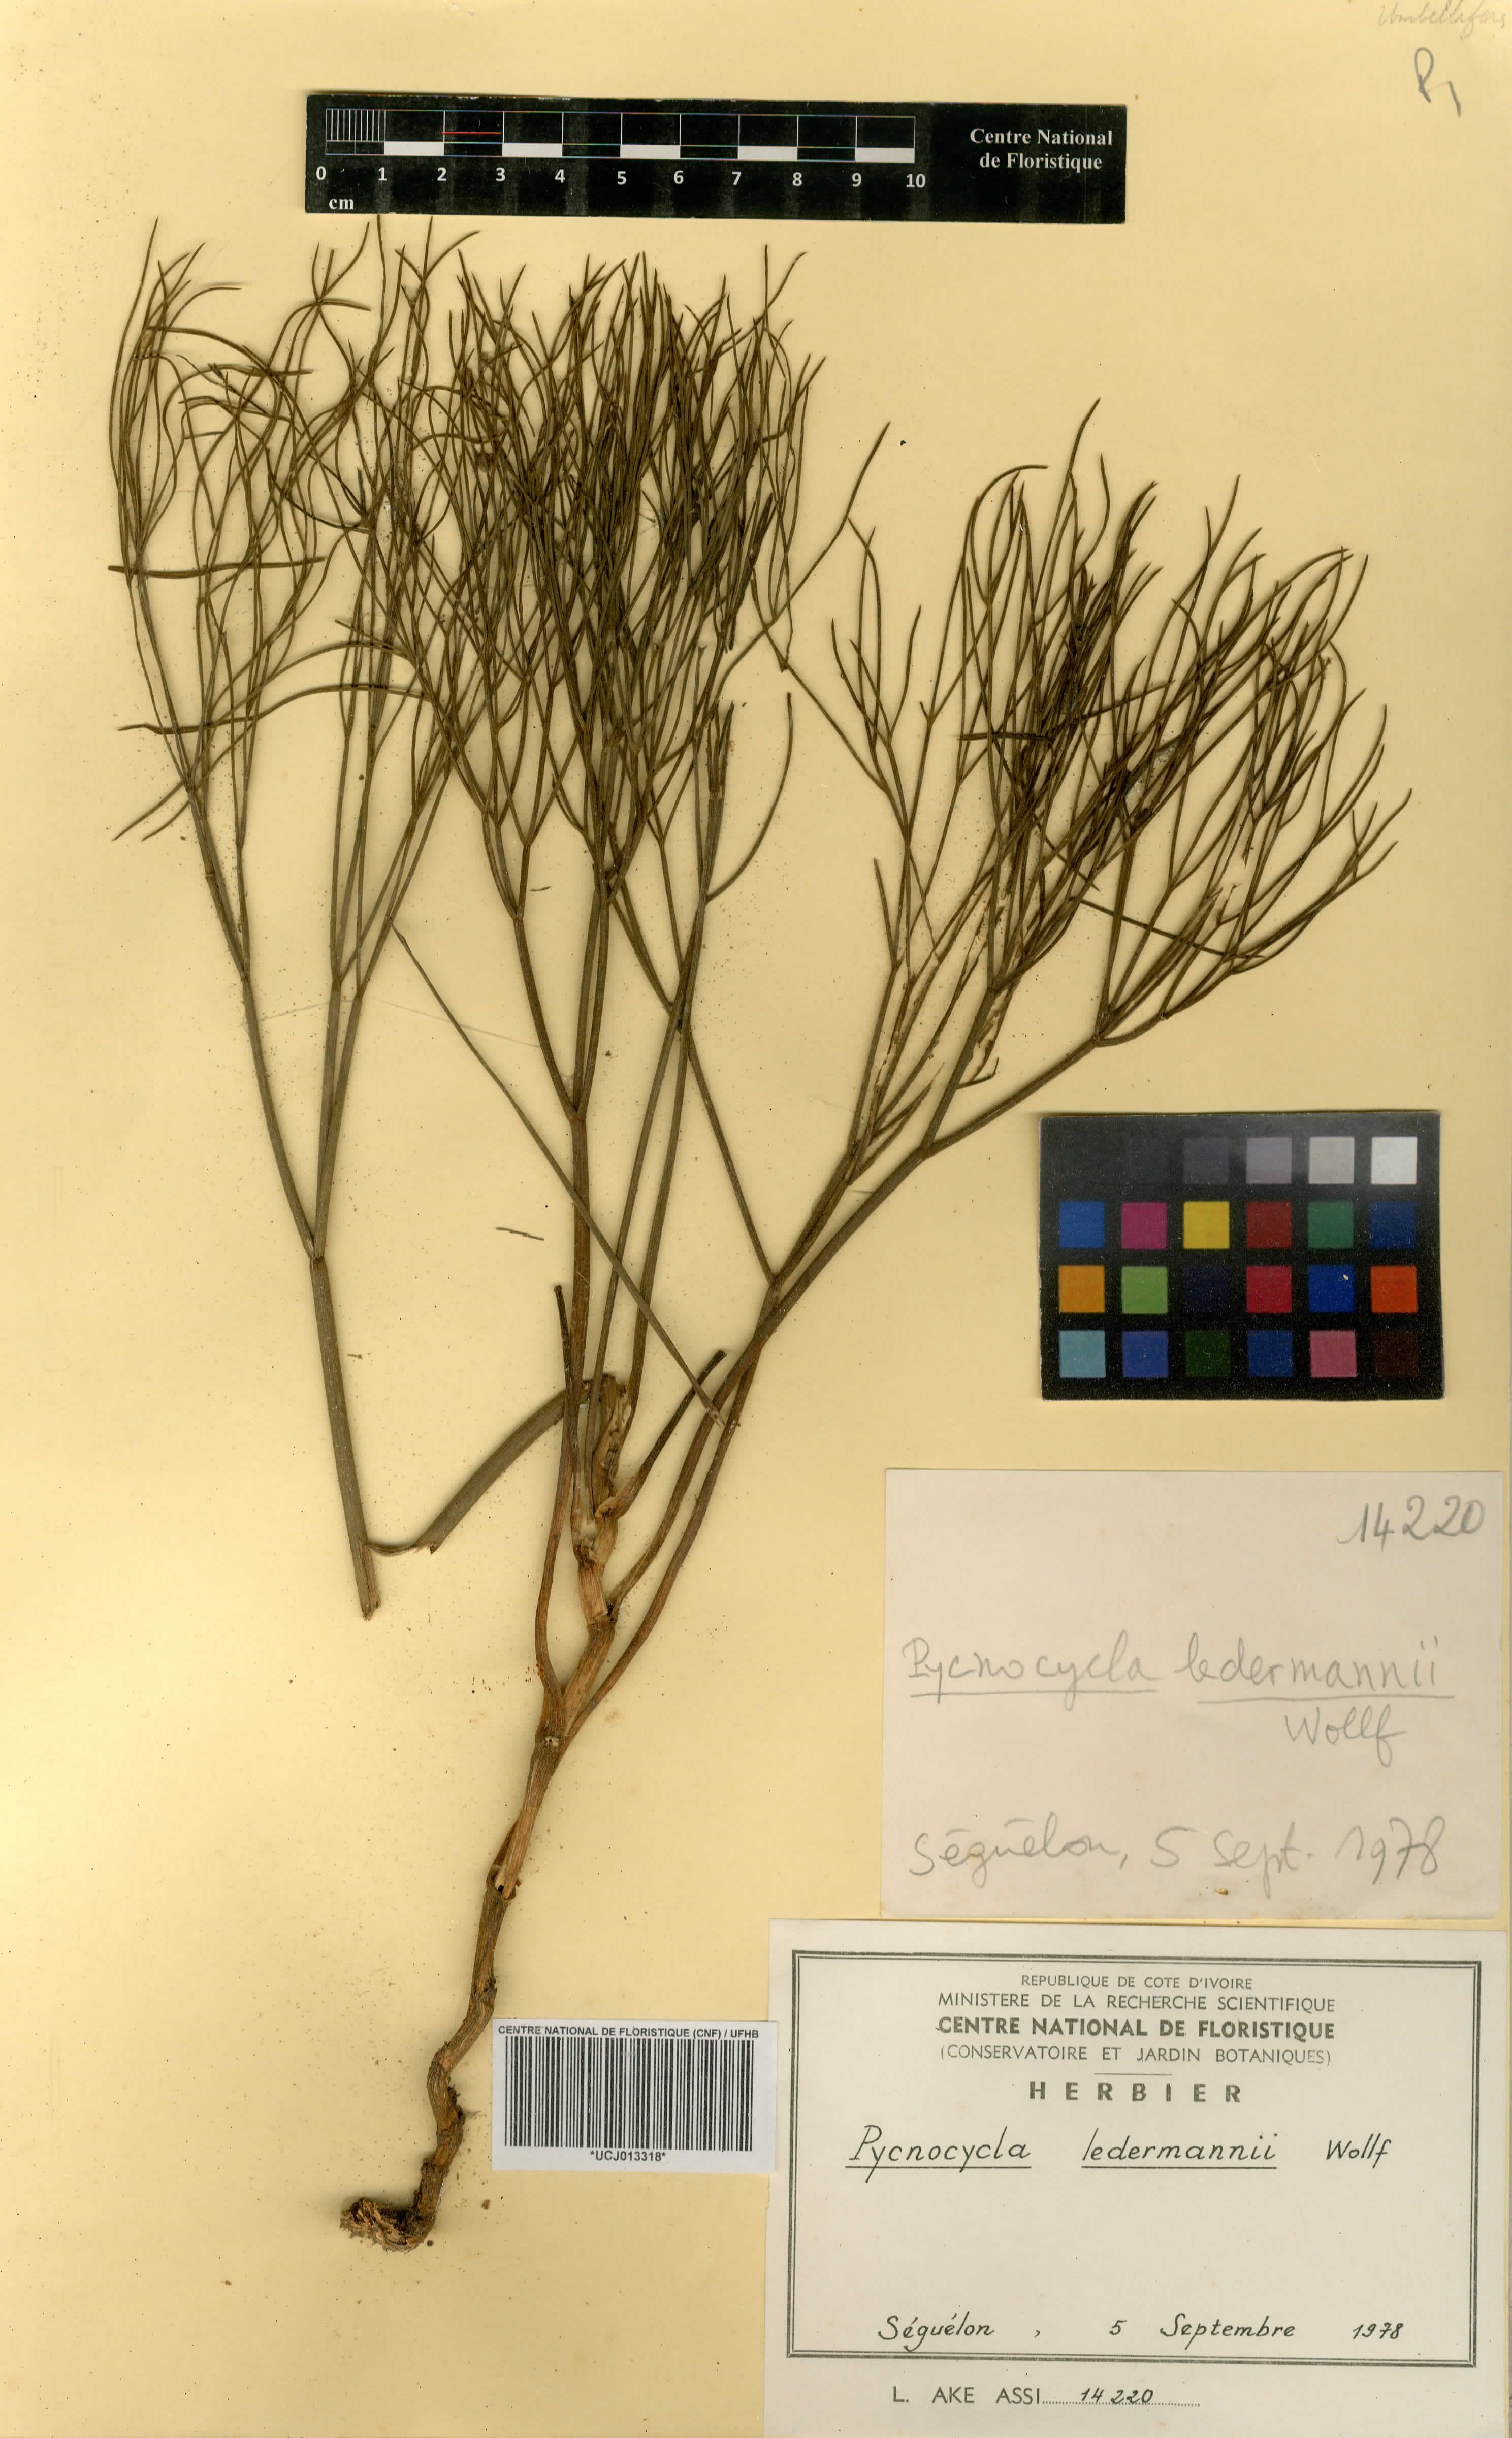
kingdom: Plantae
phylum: Tracheophyta
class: Magnoliopsida
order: Apiales
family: Apiaceae
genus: Pycnocycla
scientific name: Pycnocycla ledermannii
